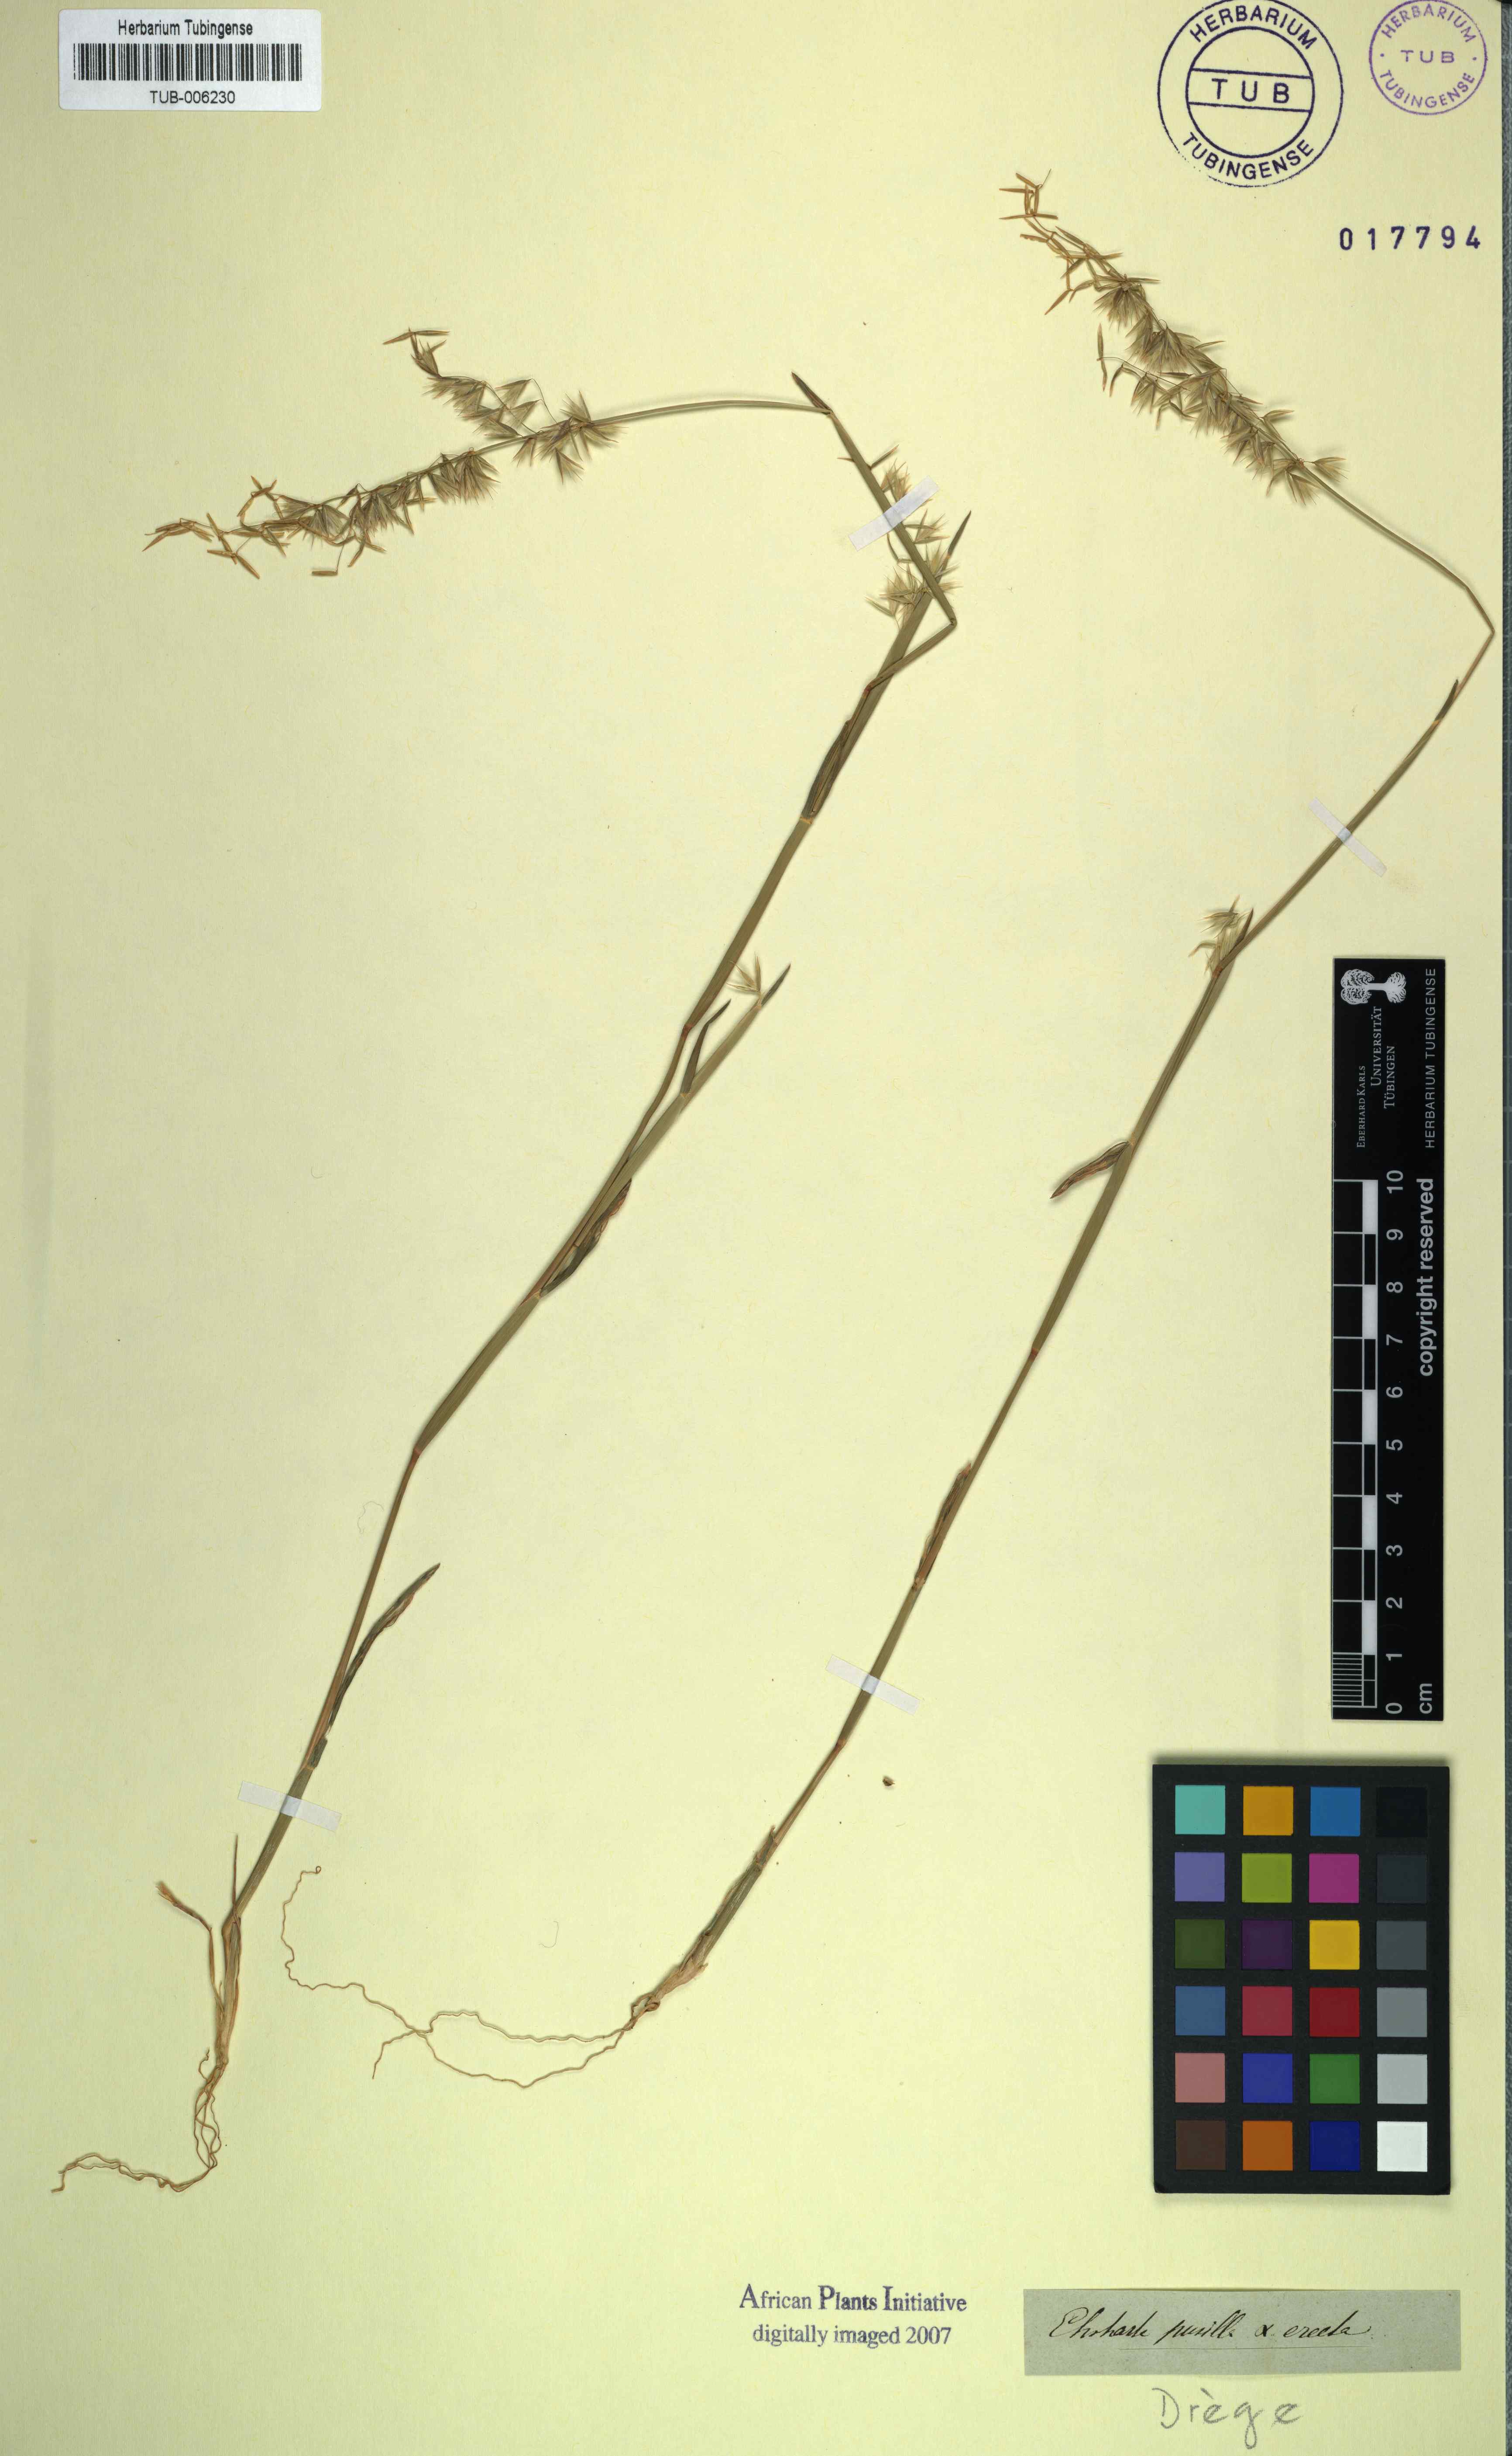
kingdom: Plantae
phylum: Tracheophyta
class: Liliopsida
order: Poales
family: Poaceae
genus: Ehrharta
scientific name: Ehrharta pusilla
